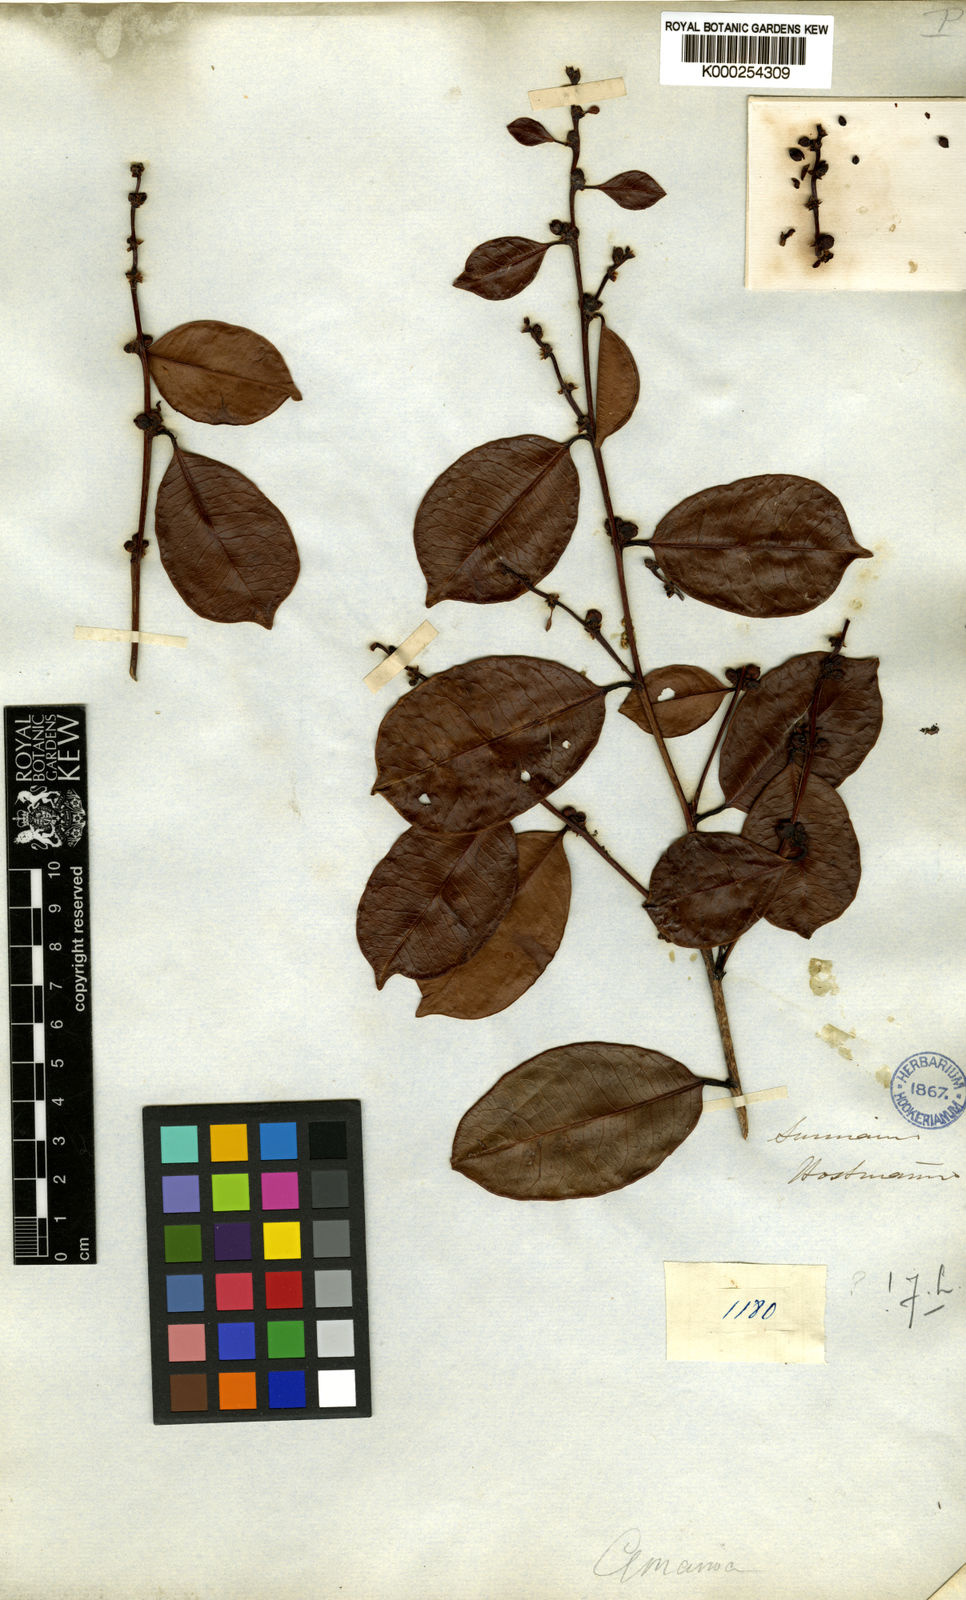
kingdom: Plantae
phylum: Tracheophyta
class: Magnoliopsida
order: Malpighiales
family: Phyllanthaceae
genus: Amanoa
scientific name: Amanoa guianensis
